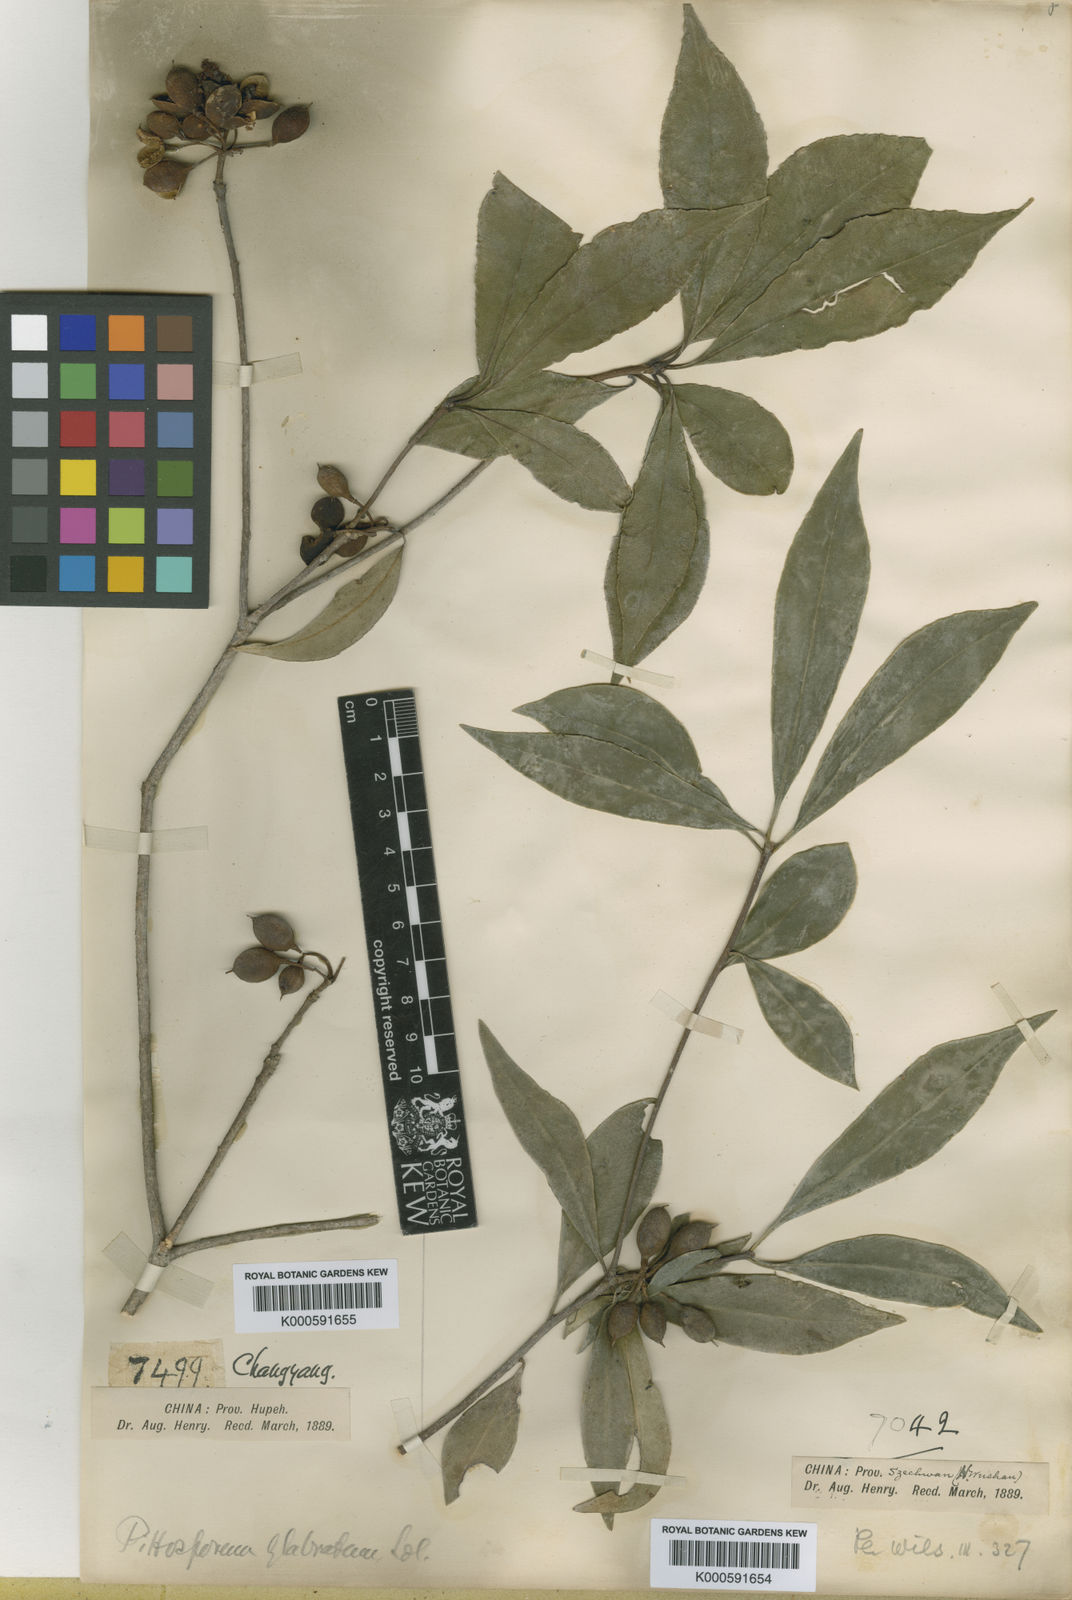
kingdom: Plantae
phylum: Tracheophyta
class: Magnoliopsida
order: Apiales
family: Pittosporaceae
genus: Pittosporum
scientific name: Pittosporum henryi
